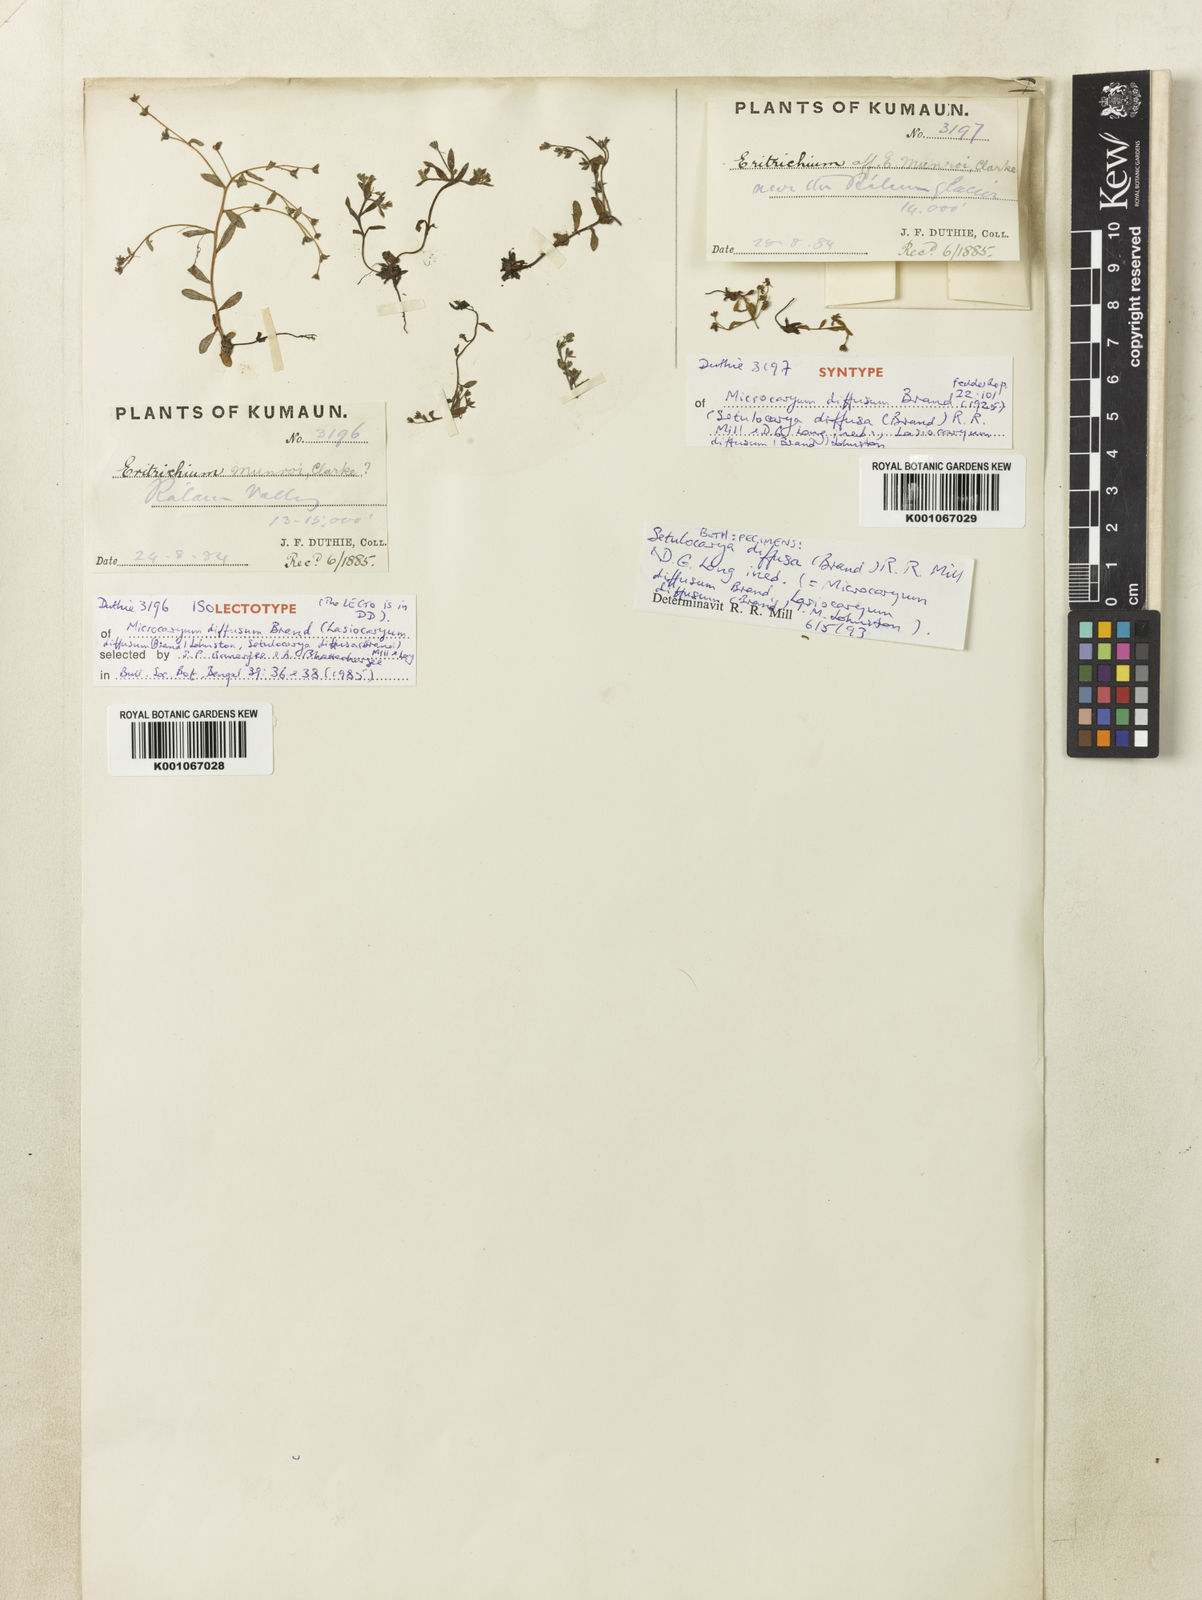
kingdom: Plantae
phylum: Tracheophyta
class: Magnoliopsida
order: Boraginales
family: Boraginaceae
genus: Lasiocaryum
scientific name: Lasiocaryum munroi
